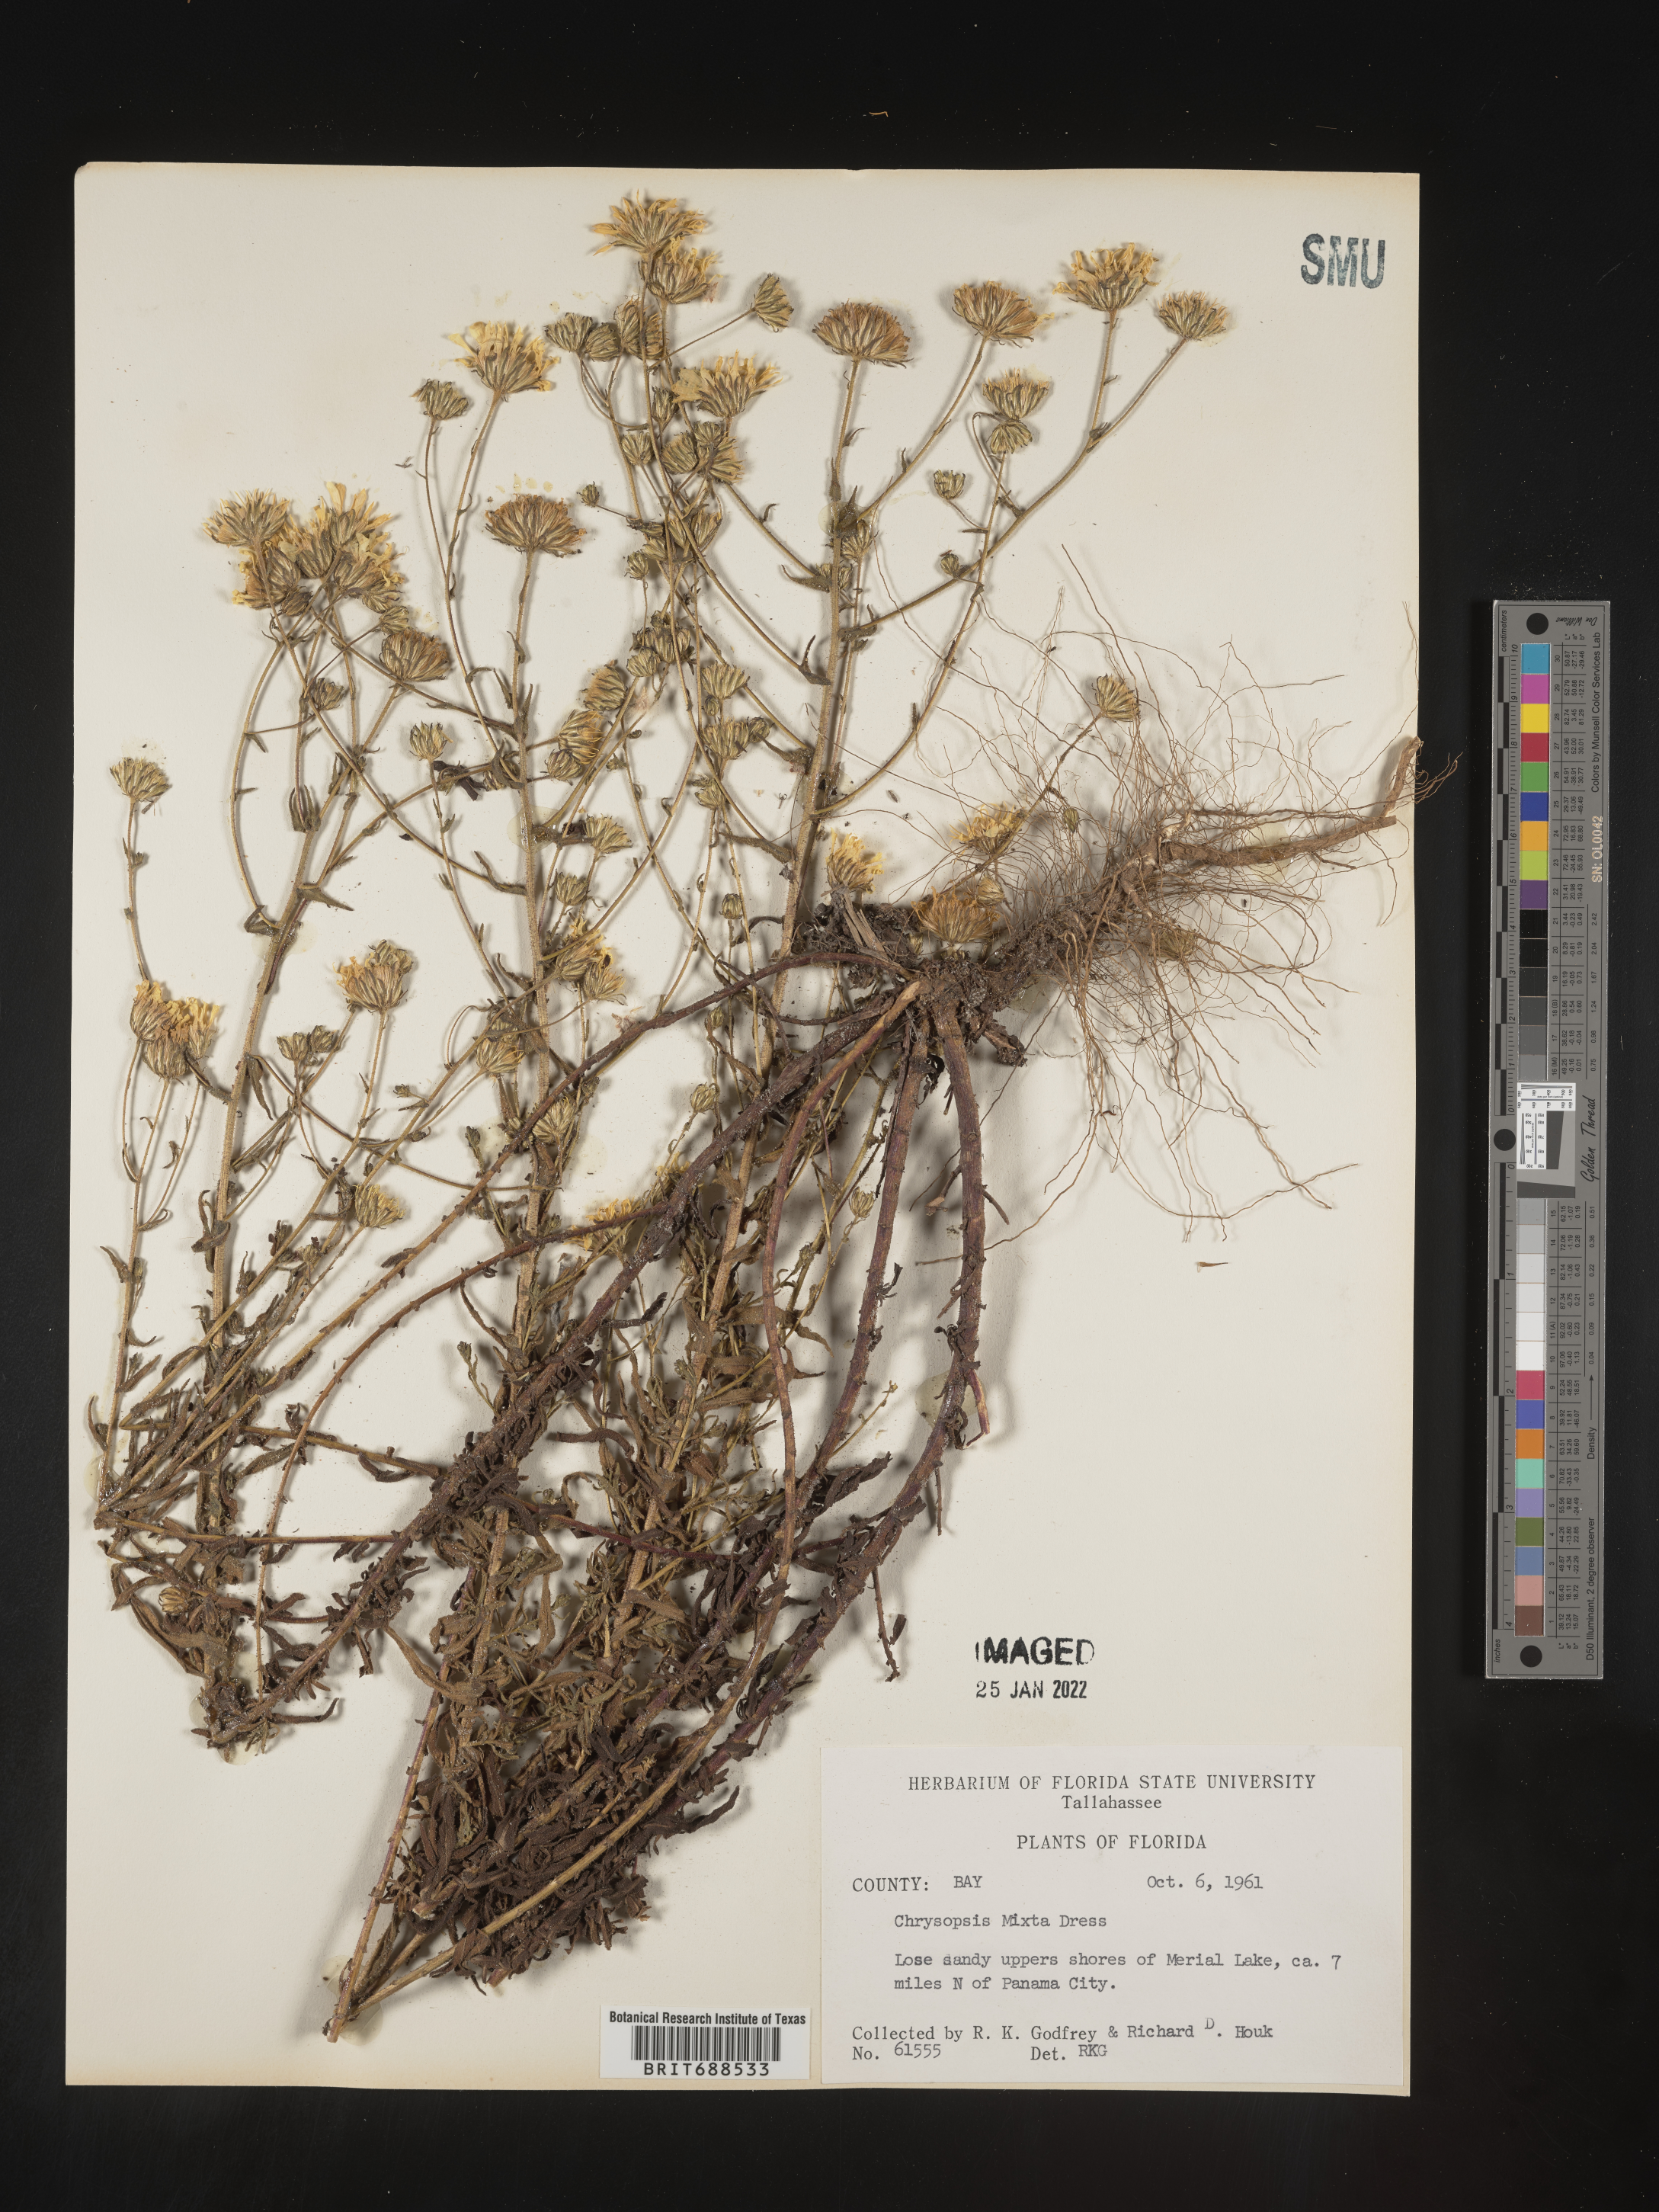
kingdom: Plantae
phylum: Tracheophyta
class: Magnoliopsida
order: Asterales
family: Asteraceae
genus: Chrysopsis
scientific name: Chrysopsis gossypina
